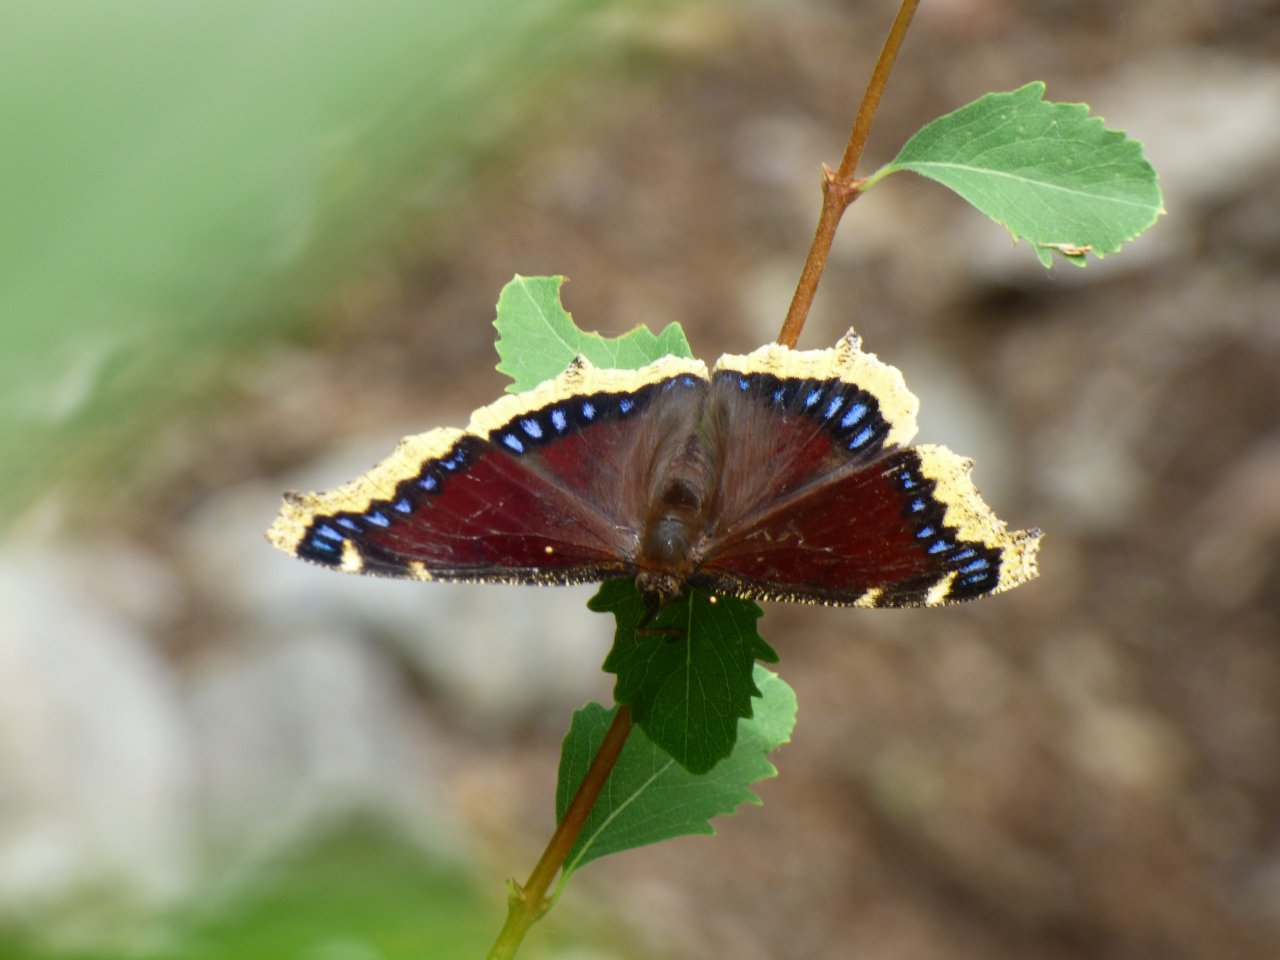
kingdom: Animalia
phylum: Arthropoda
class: Insecta
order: Lepidoptera
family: Nymphalidae
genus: Nymphalis
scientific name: Nymphalis antiopa
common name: Mourning Cloak
